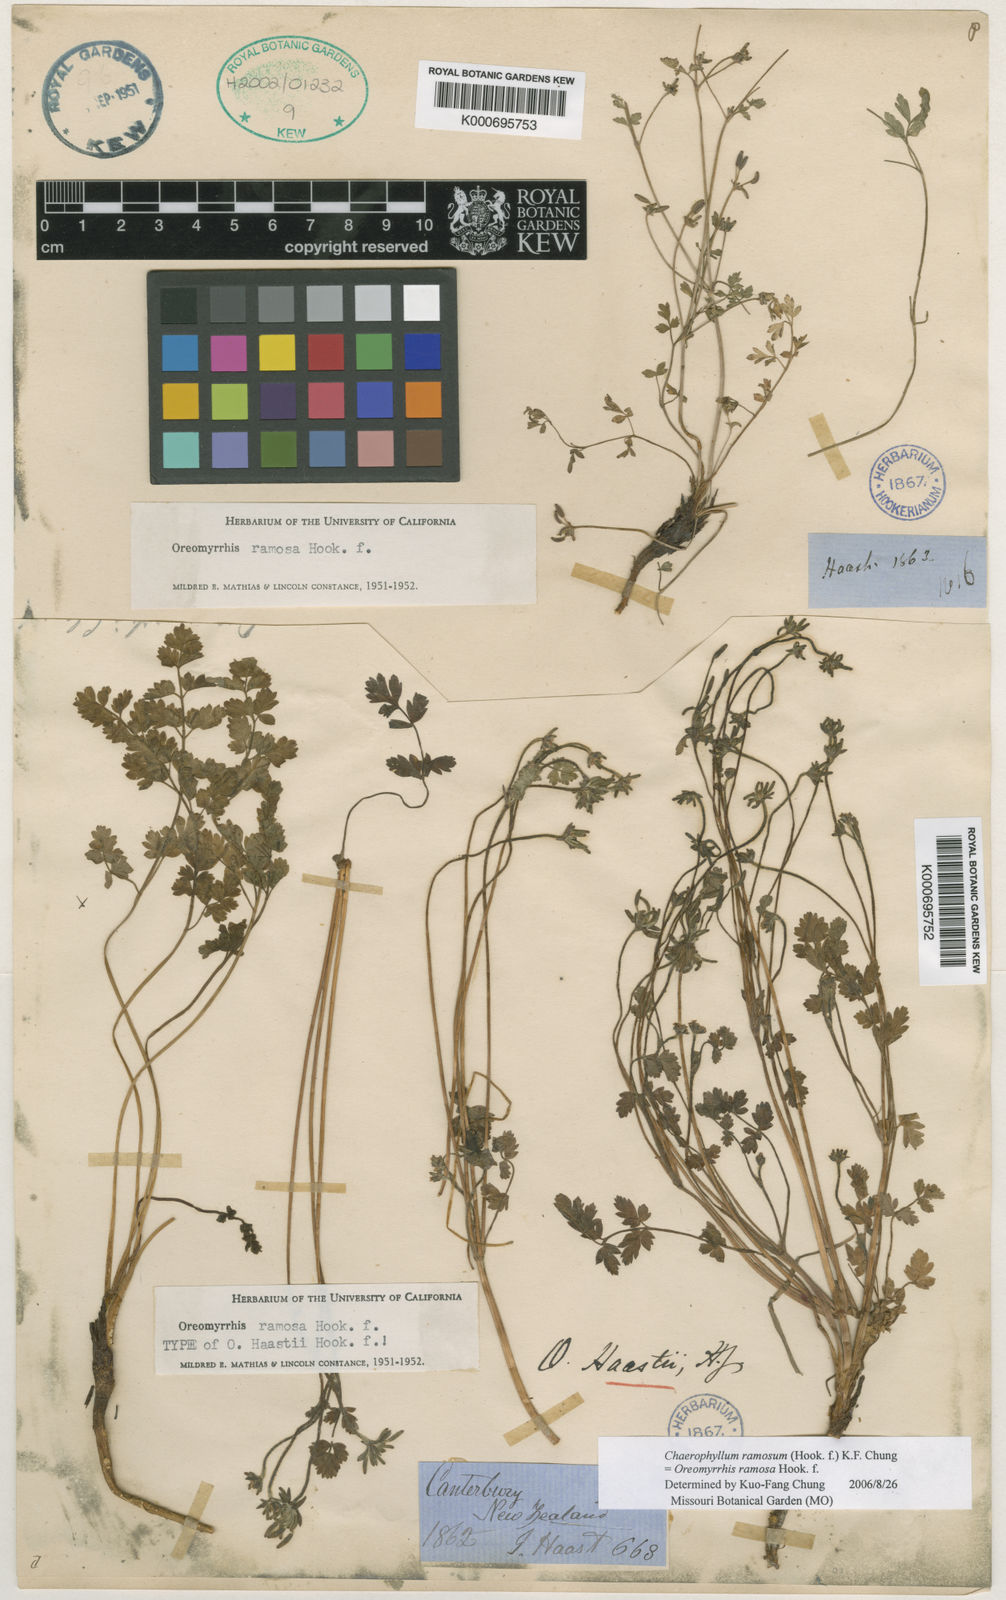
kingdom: Plantae
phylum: Tracheophyta
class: Magnoliopsida
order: Apiales
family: Apiaceae
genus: Chaerophyllum
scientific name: Chaerophyllum ramosum
